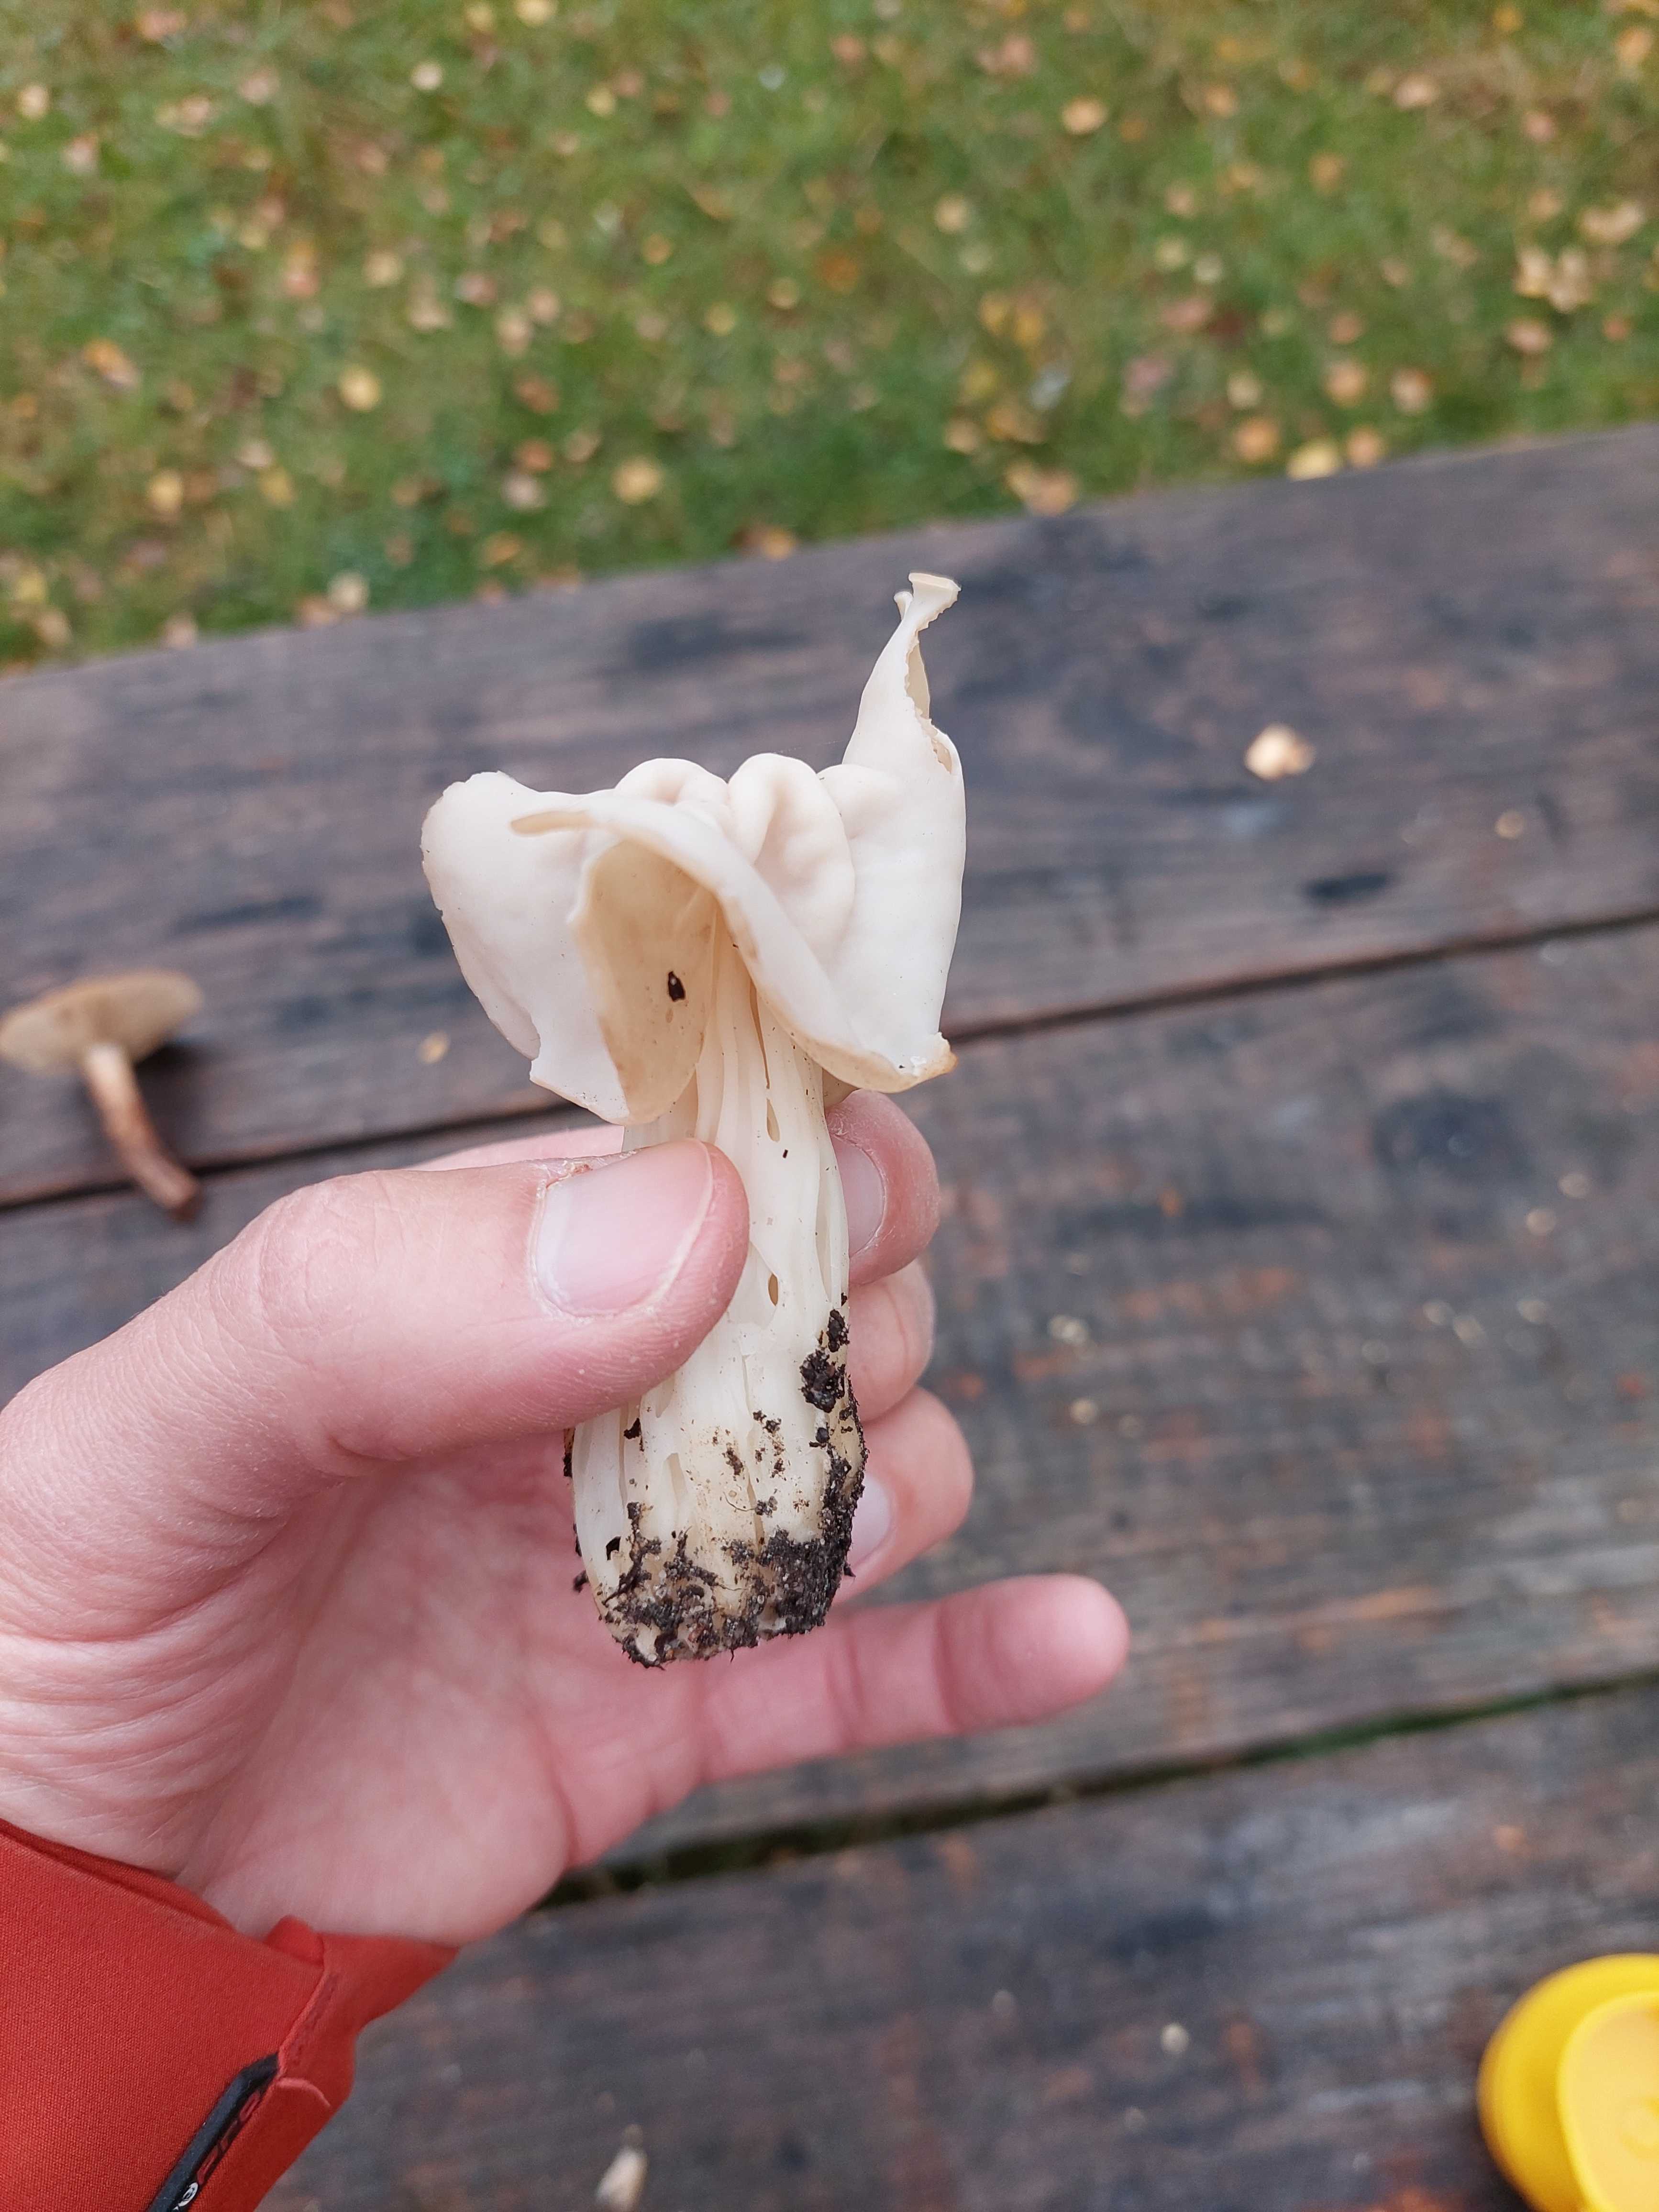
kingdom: Fungi
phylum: Ascomycota
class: Pezizomycetes
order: Pezizales
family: Helvellaceae
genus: Helvella
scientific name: Helvella crispa
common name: kruset foldhat
